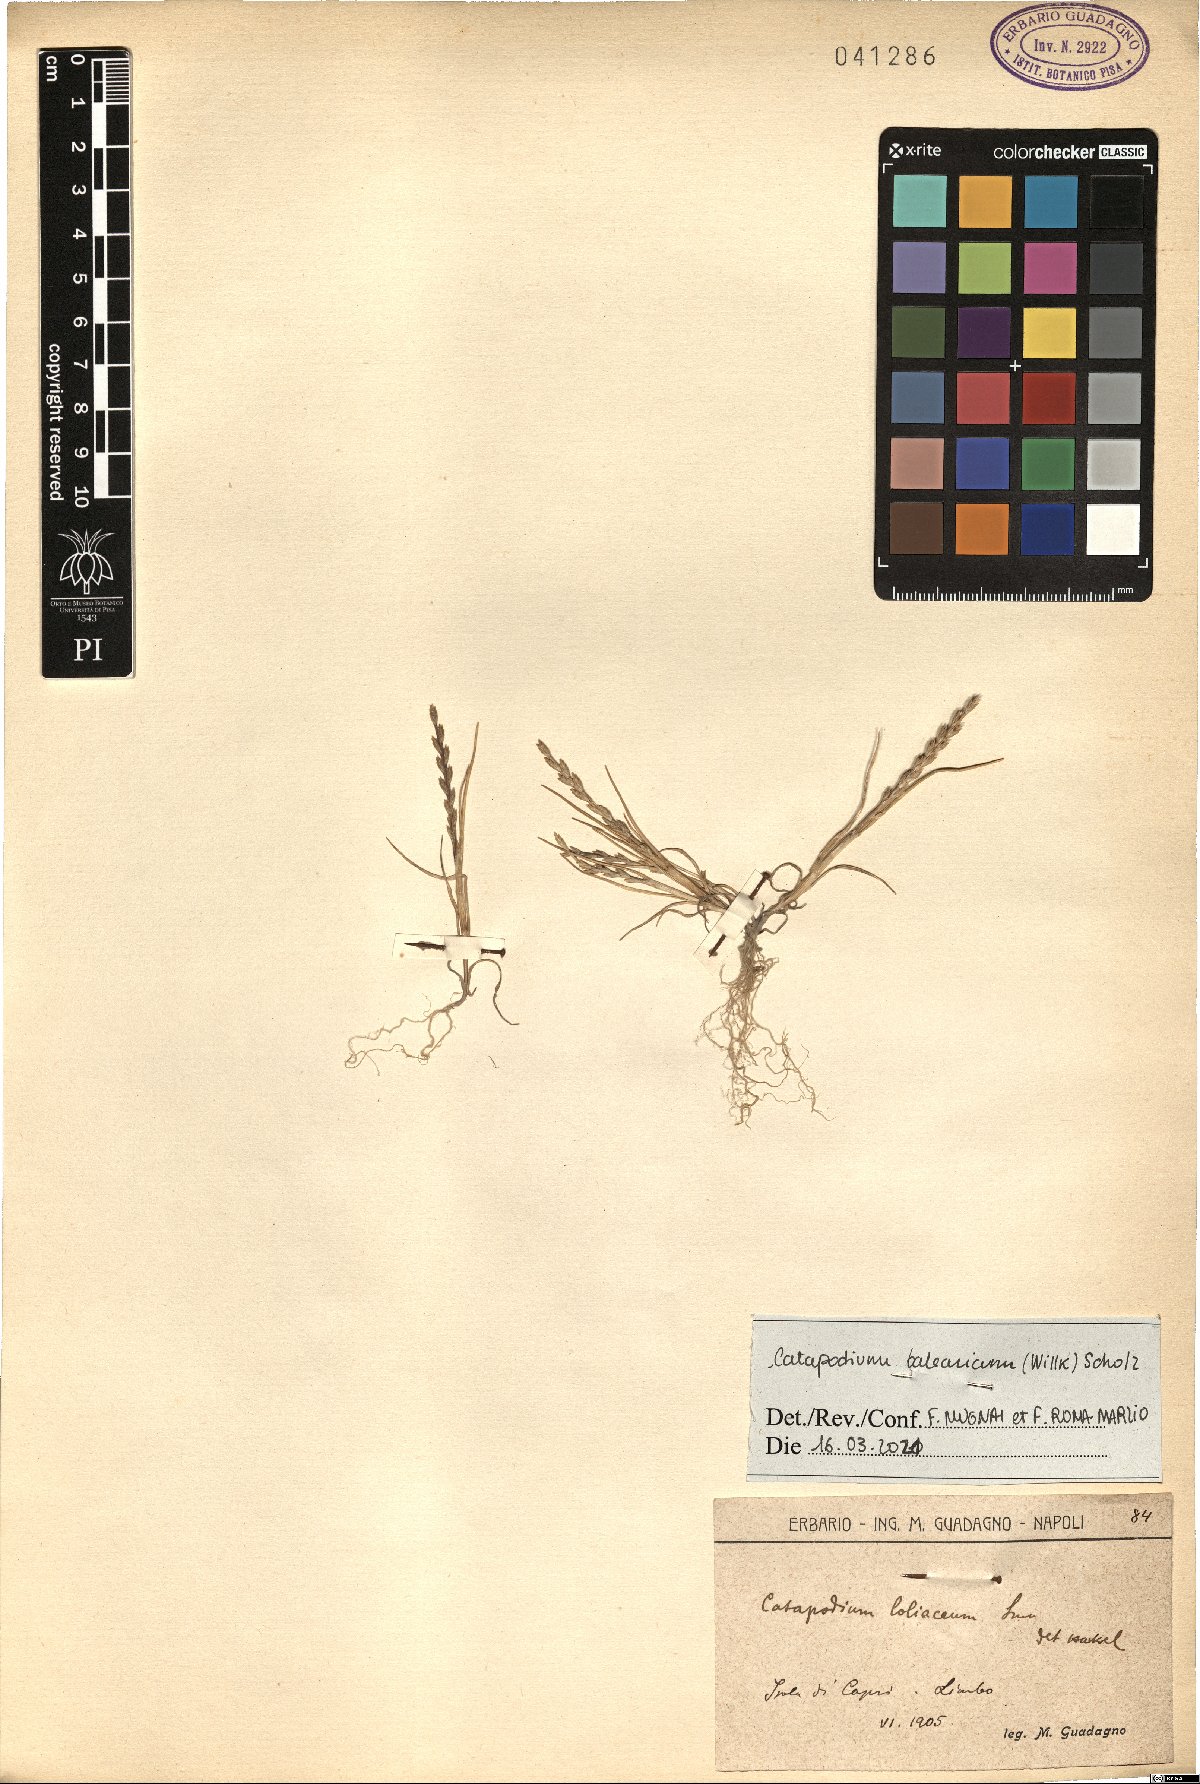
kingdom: Plantae
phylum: Tracheophyta
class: Liliopsida
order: Poales
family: Poaceae
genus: Catapodium
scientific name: Catapodium balearicum
